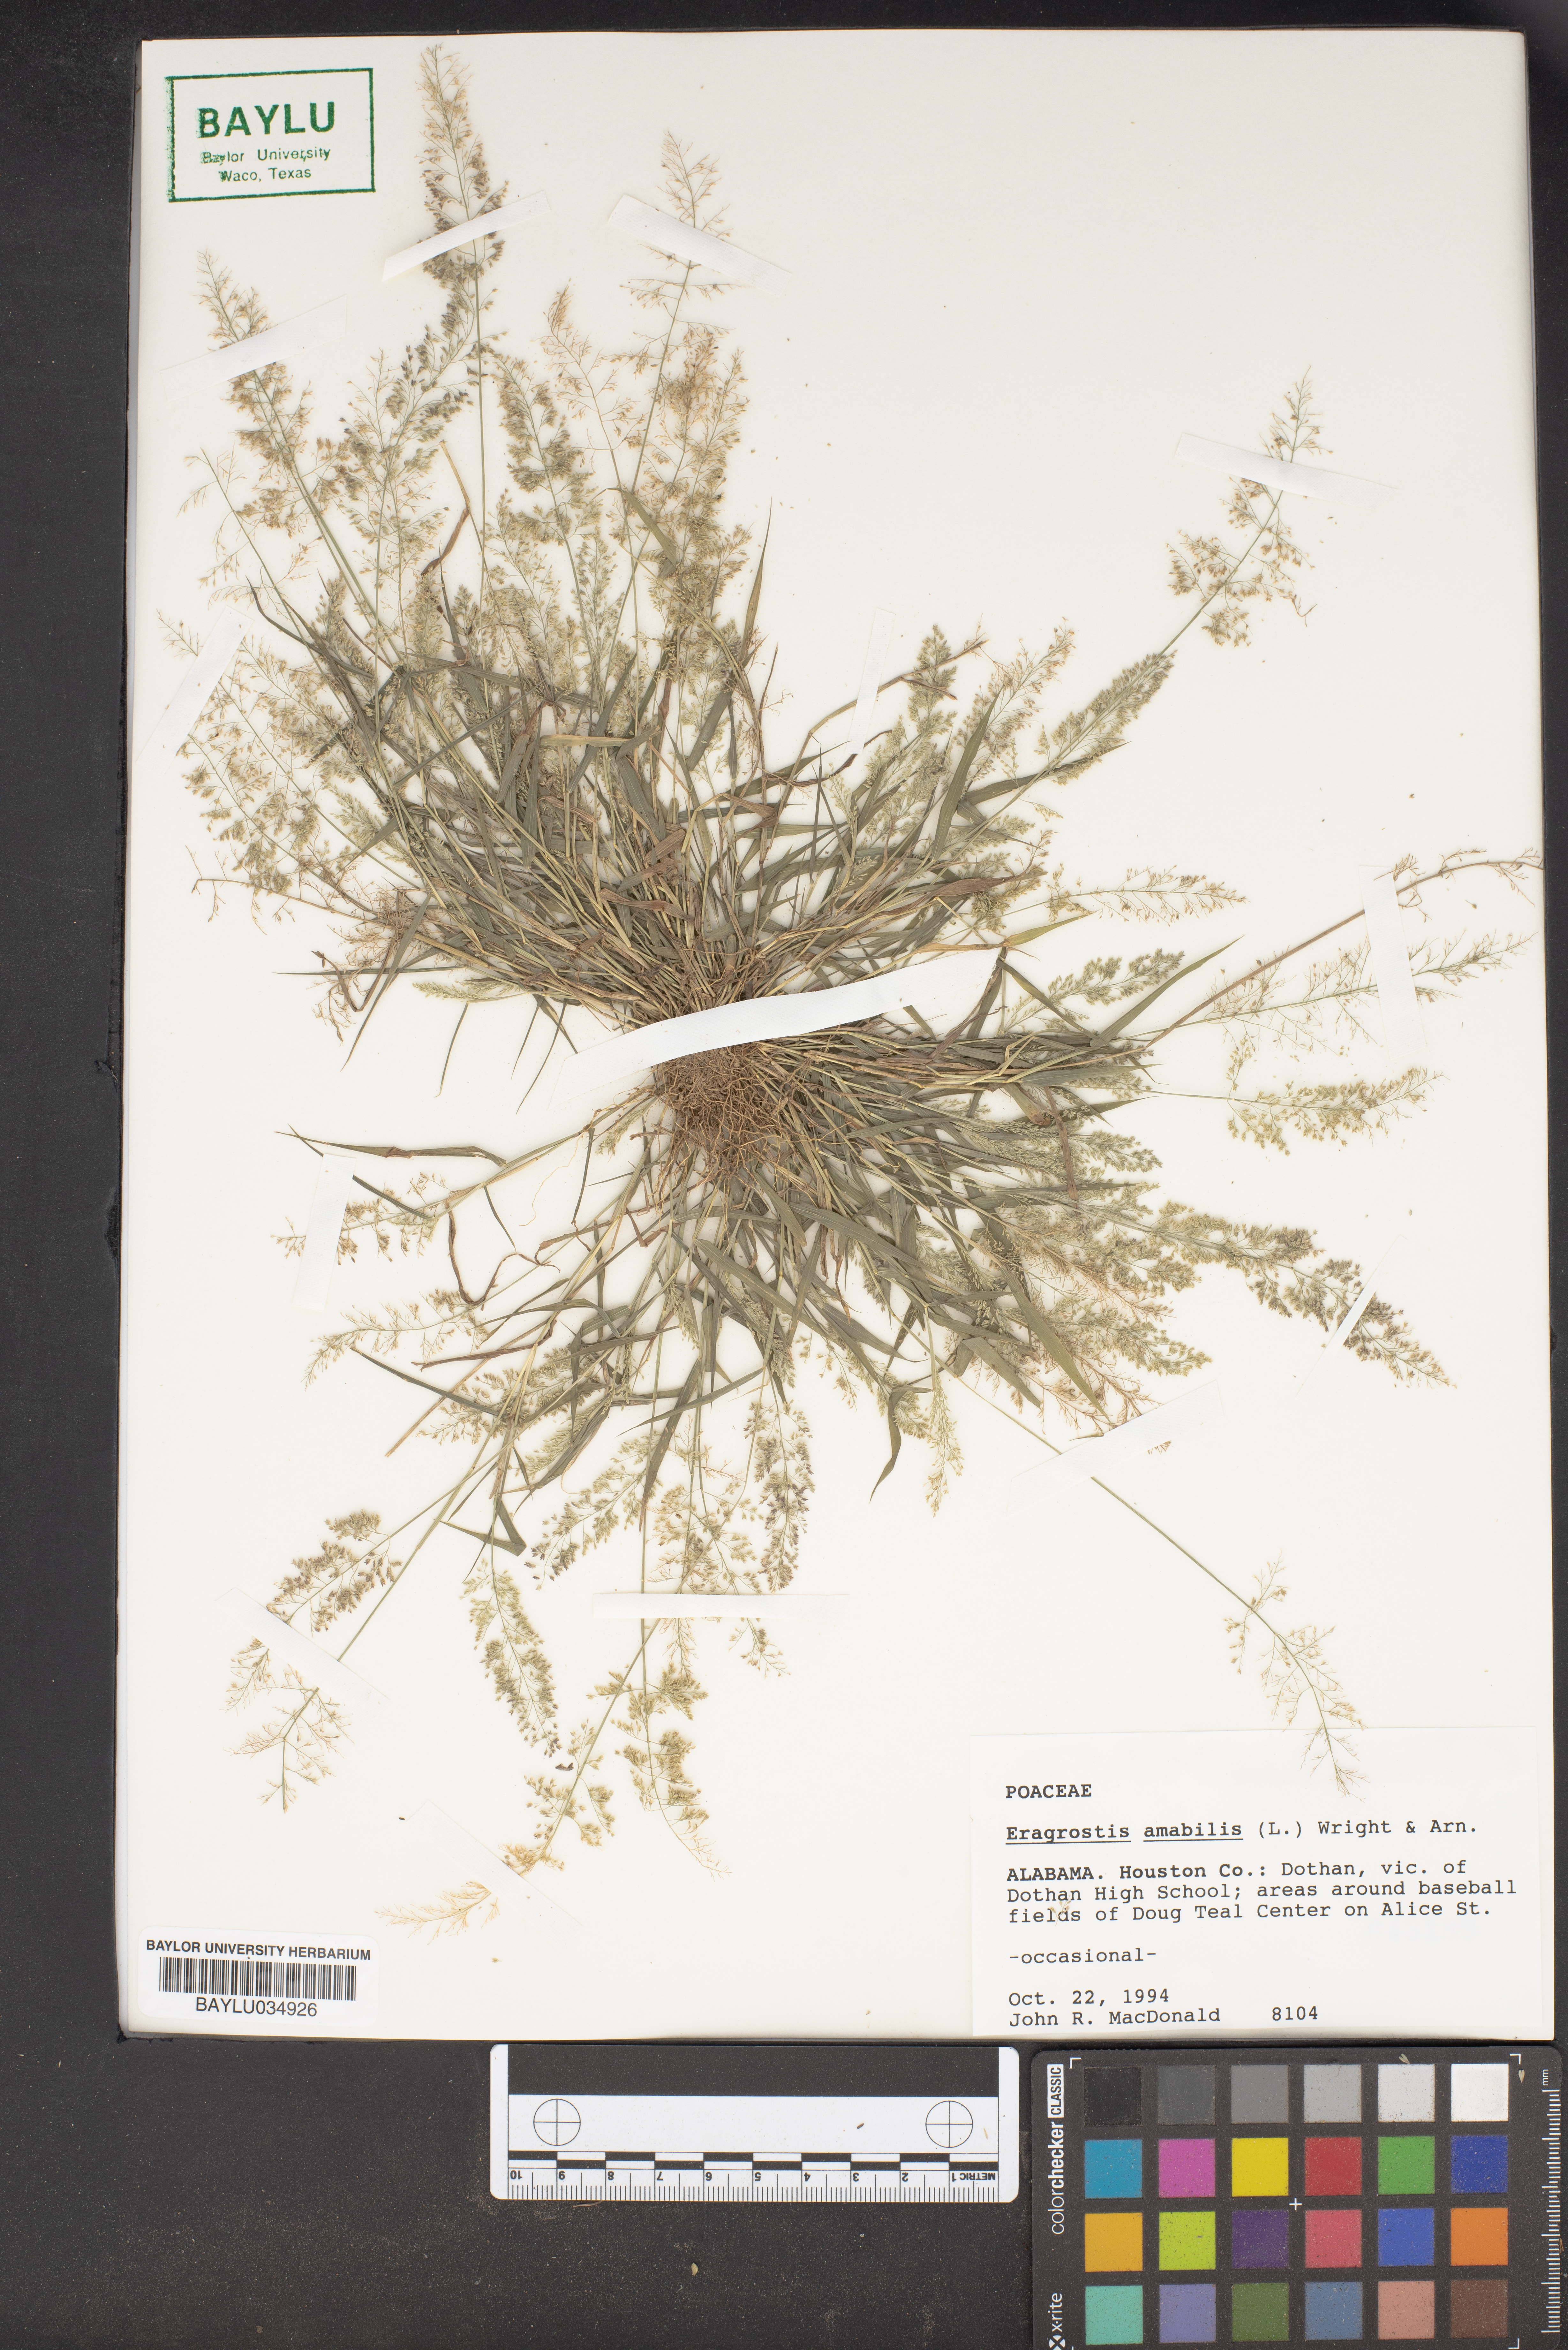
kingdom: Plantae
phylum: Tracheophyta
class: Liliopsida
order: Poales
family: Poaceae
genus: Eragrostis
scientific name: Eragrostis viscosa
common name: Sticky love grass
